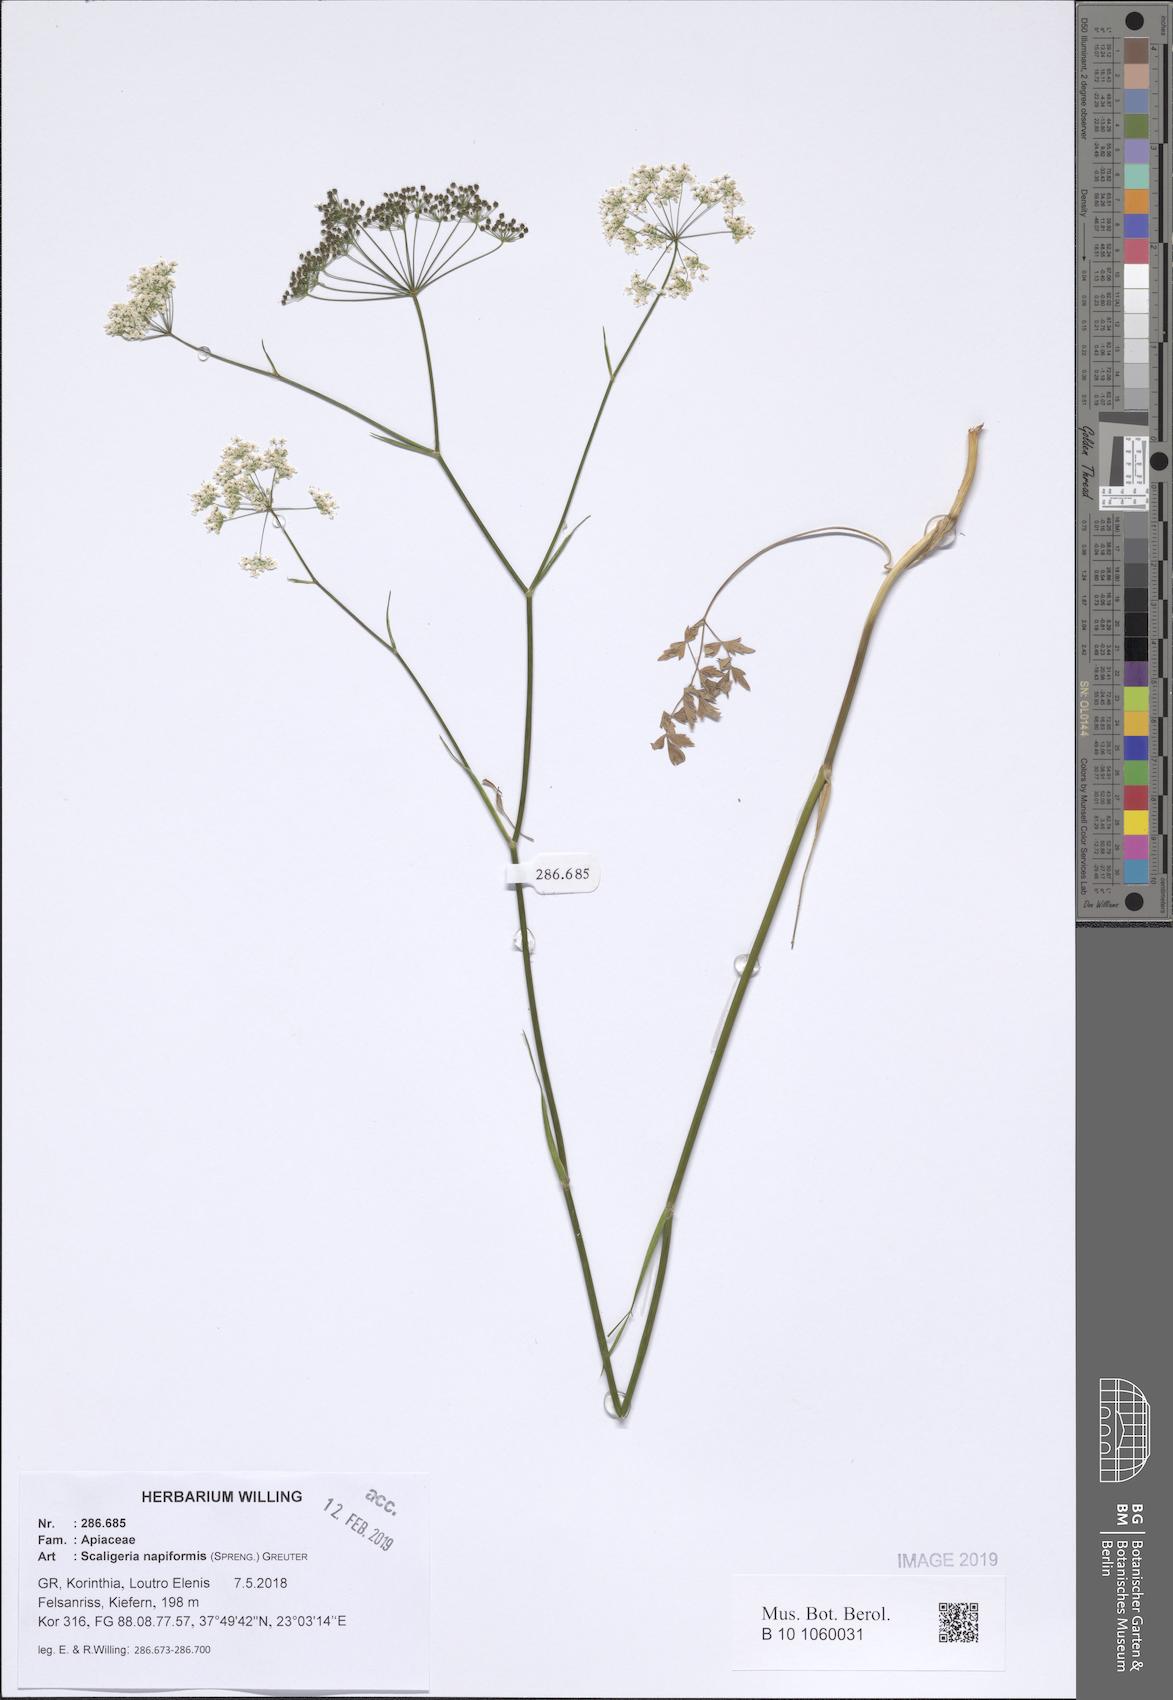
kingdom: Plantae
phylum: Tracheophyta
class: Magnoliopsida
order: Apiales
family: Apiaceae
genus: Scaligeria
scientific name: Scaligeria napiformis
